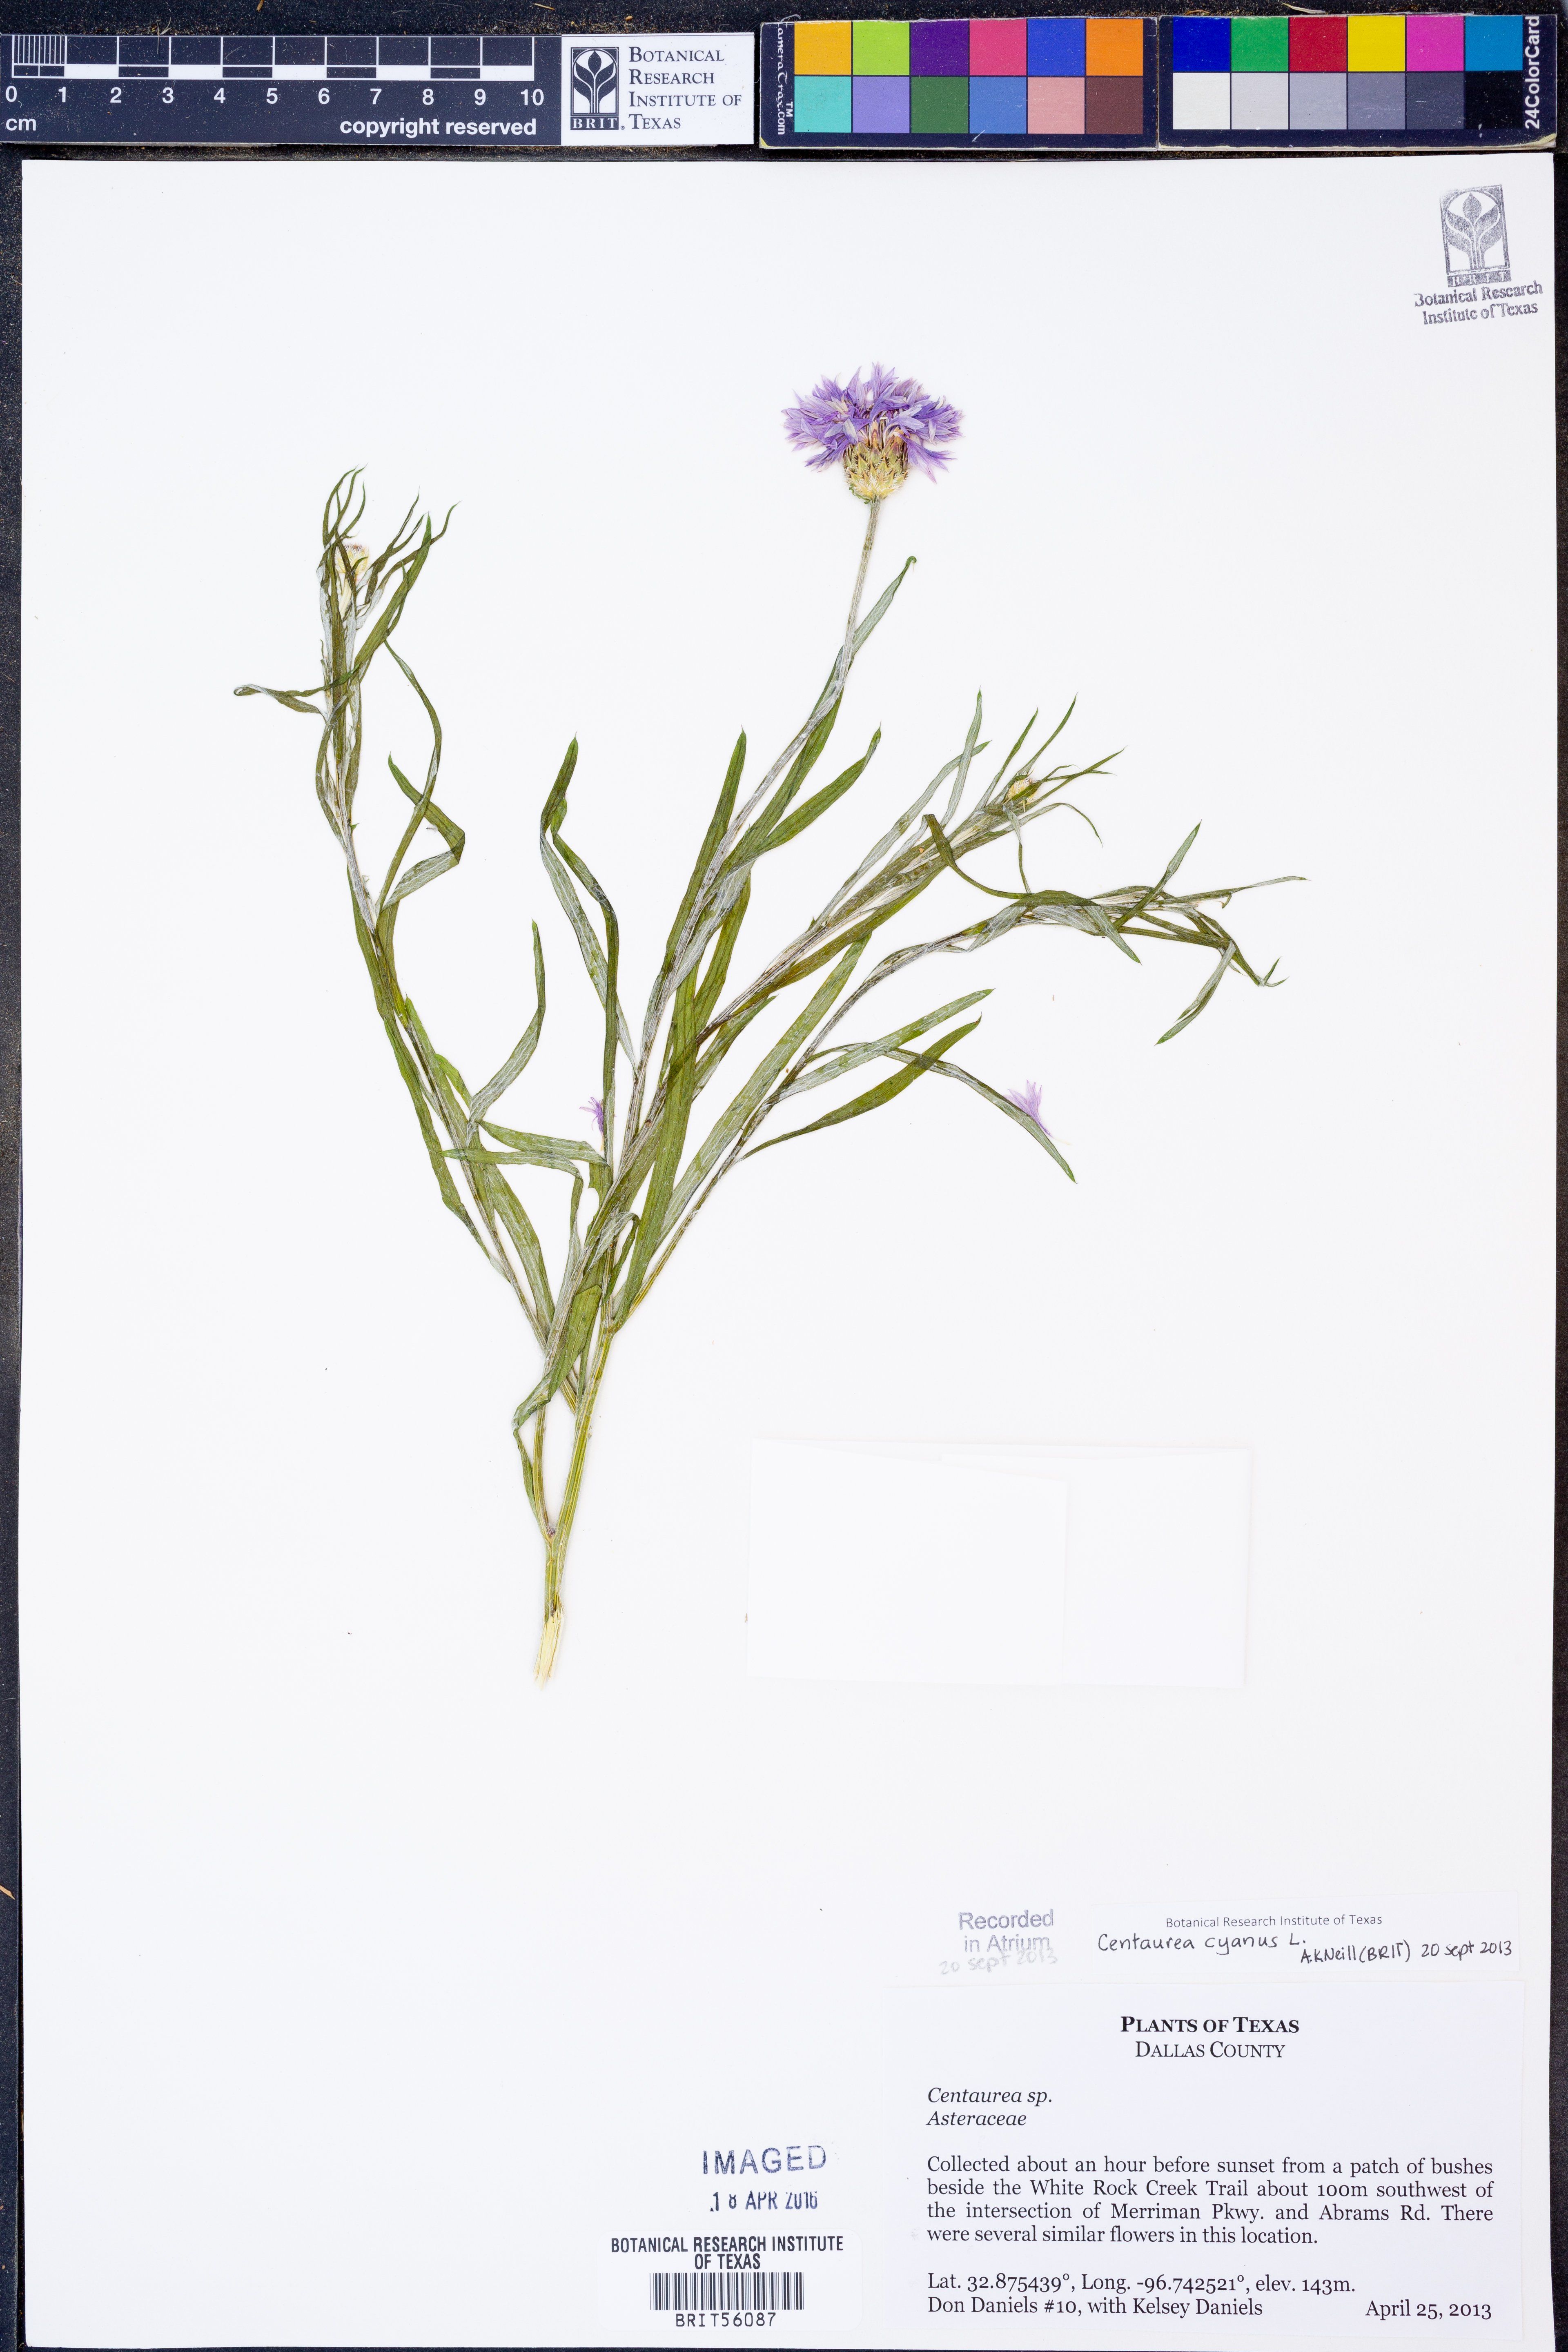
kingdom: Plantae
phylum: Tracheophyta
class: Magnoliopsida
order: Asterales
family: Asteraceae
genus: Centaurea
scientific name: Centaurea cyanus
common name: Cornflower
